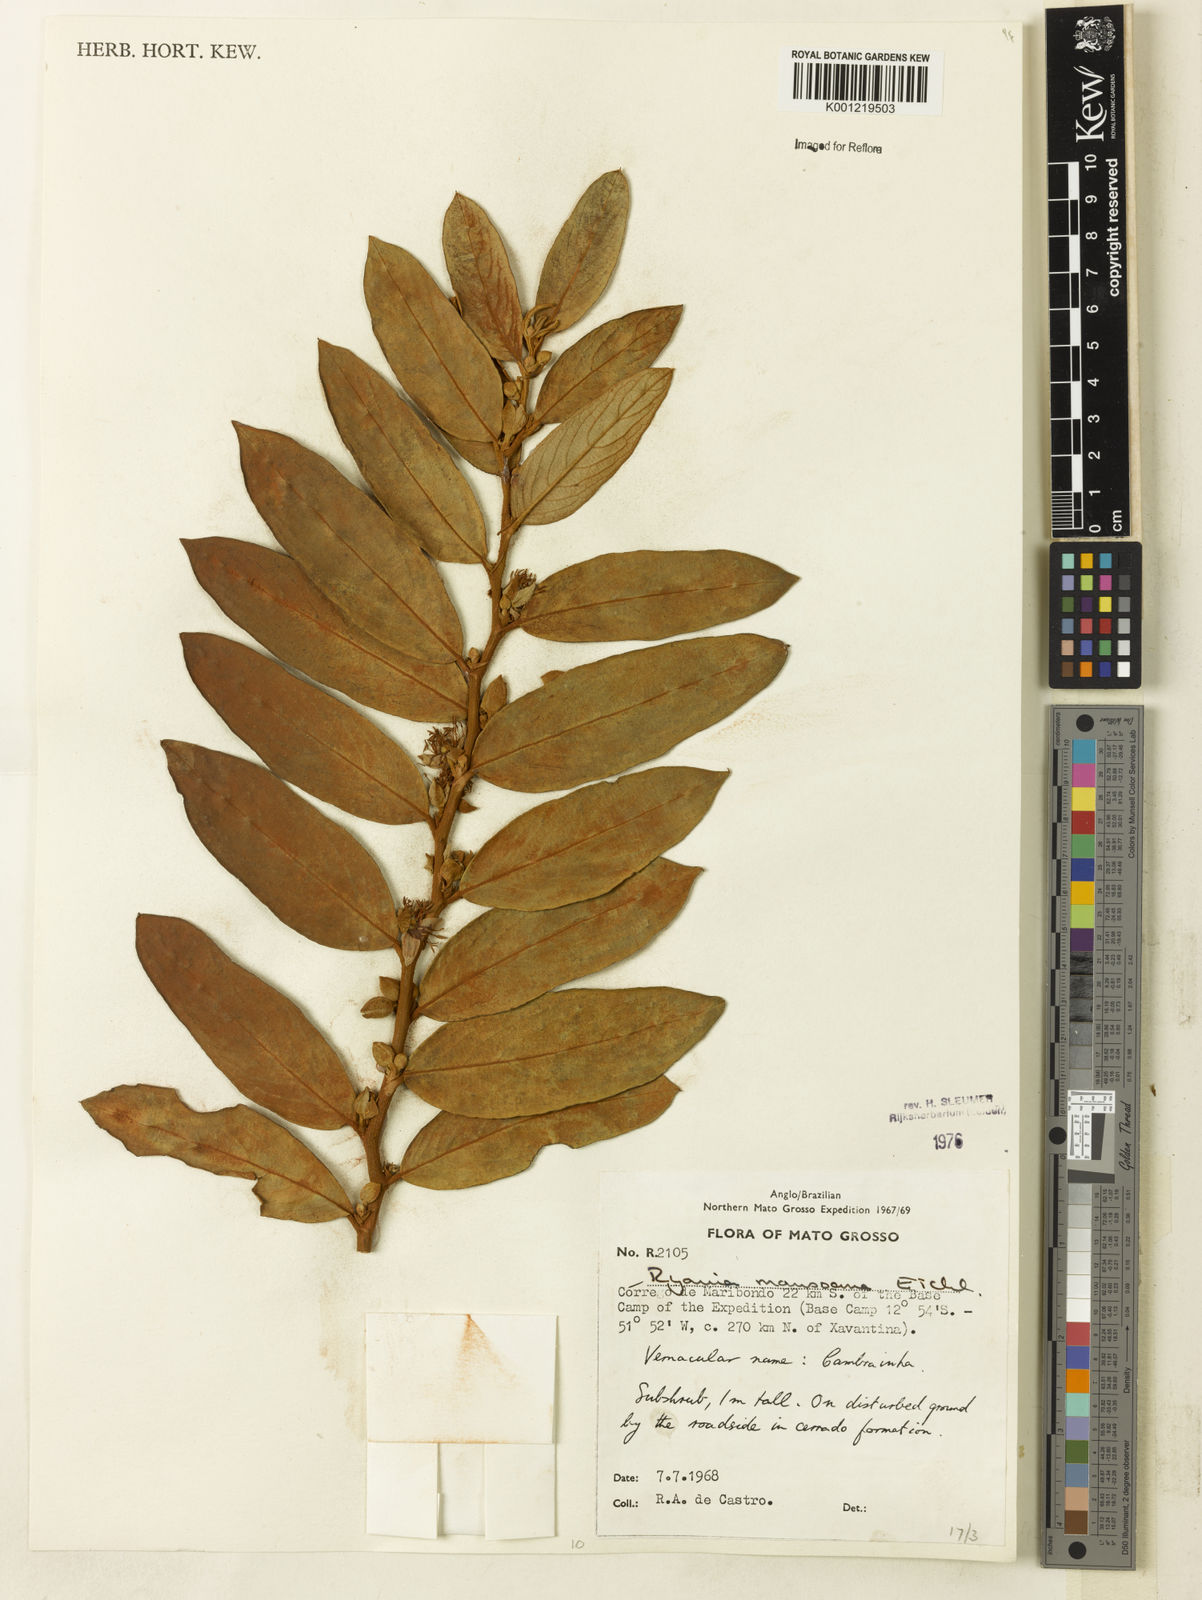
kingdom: Plantae
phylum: Tracheophyta
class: Magnoliopsida
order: Malpighiales
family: Salicaceae
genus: Ryania
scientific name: Ryania mansoana
